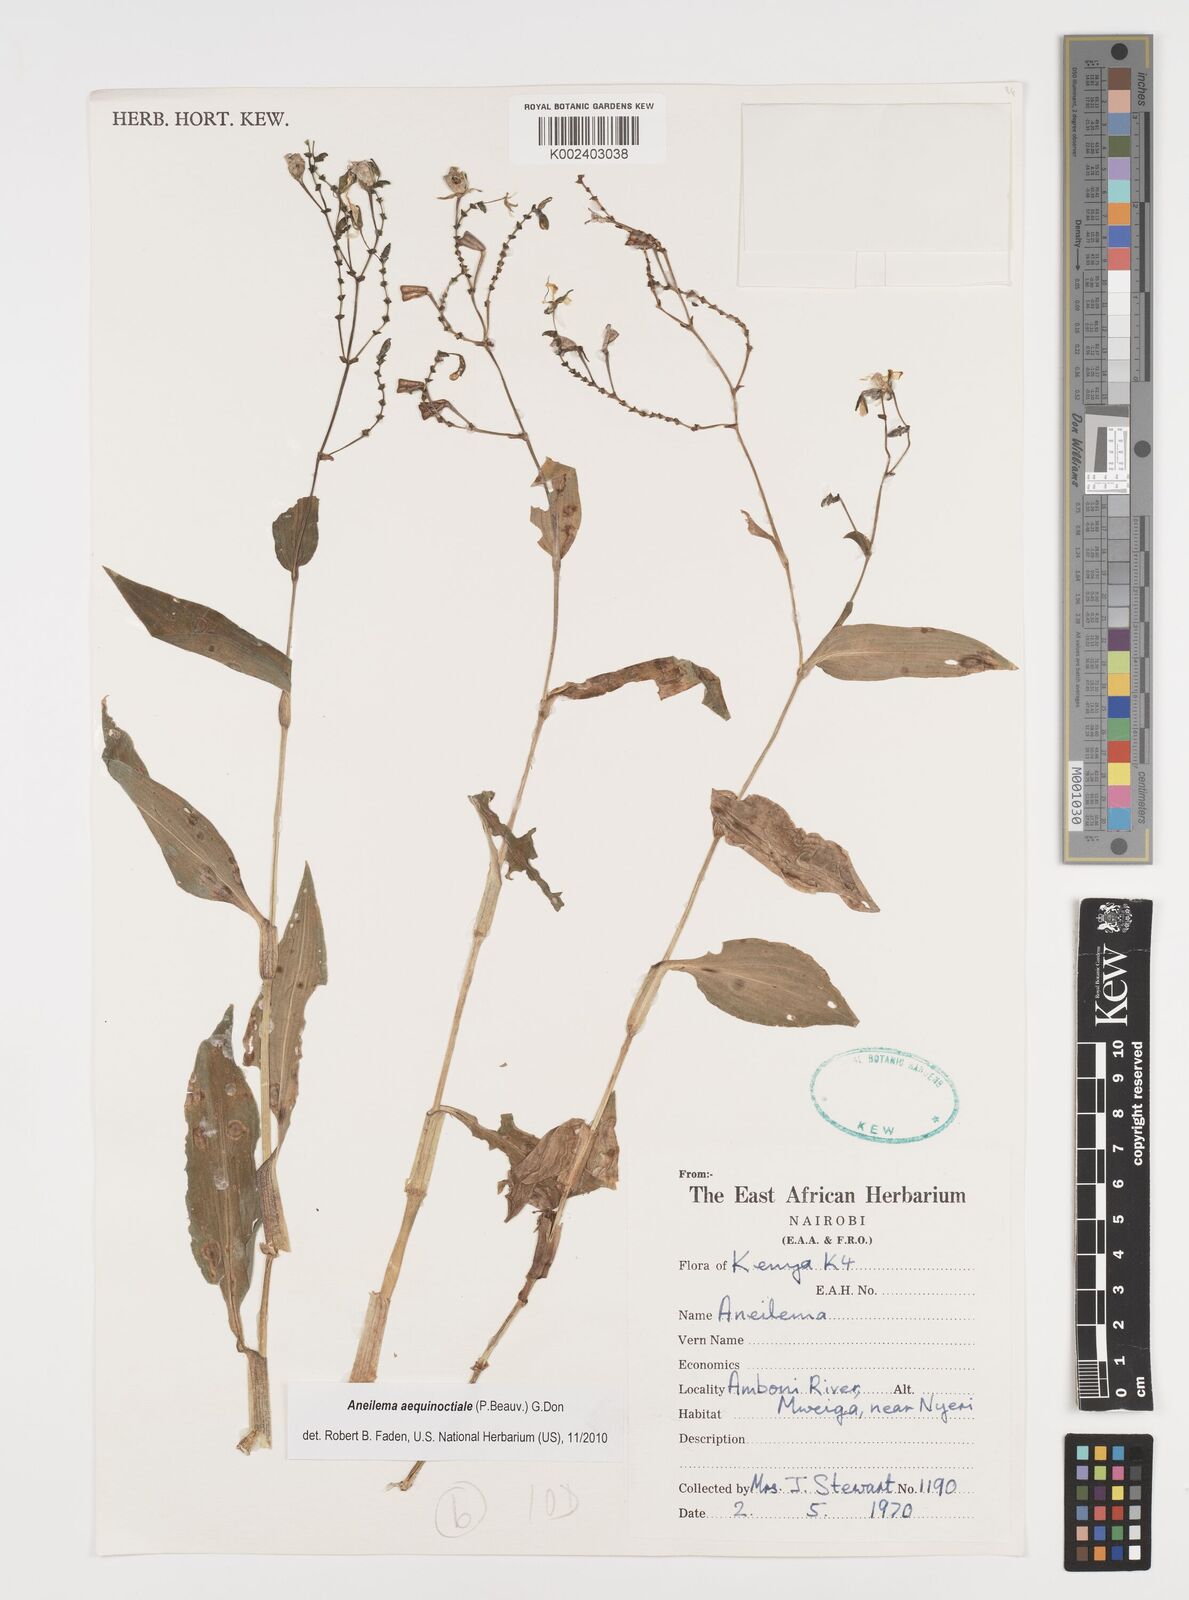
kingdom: Plantae
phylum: Tracheophyta
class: Liliopsida
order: Commelinales
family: Commelinaceae
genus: Aneilema
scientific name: Aneilema aequinoctiale
